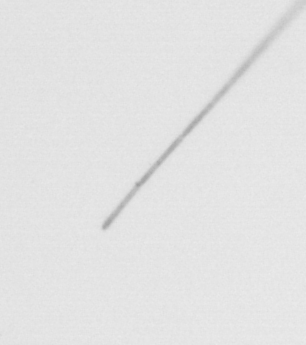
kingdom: Chromista
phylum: Ochrophyta
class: Bacillariophyceae
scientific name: Bacillariophyceae
